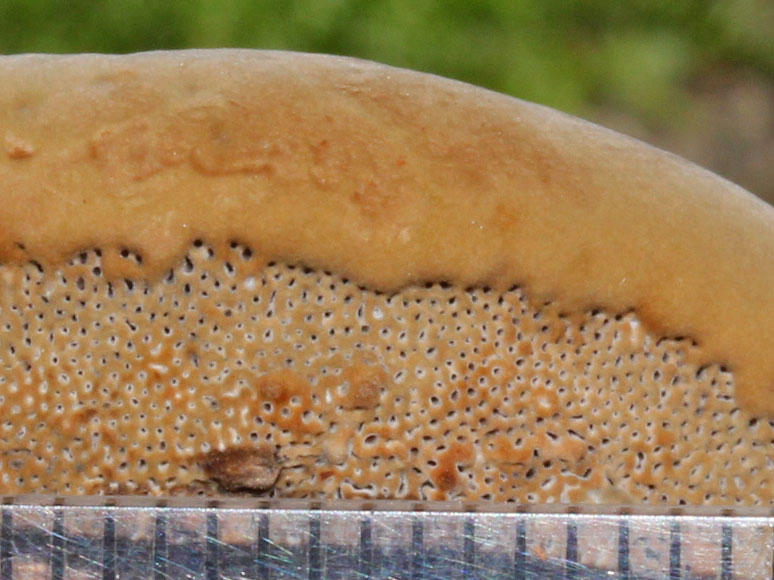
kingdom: Fungi
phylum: Basidiomycota
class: Agaricomycetes
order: Polyporales
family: Polyporaceae
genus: Fomes
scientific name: Fomes fomentarius
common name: tøndersvamp
